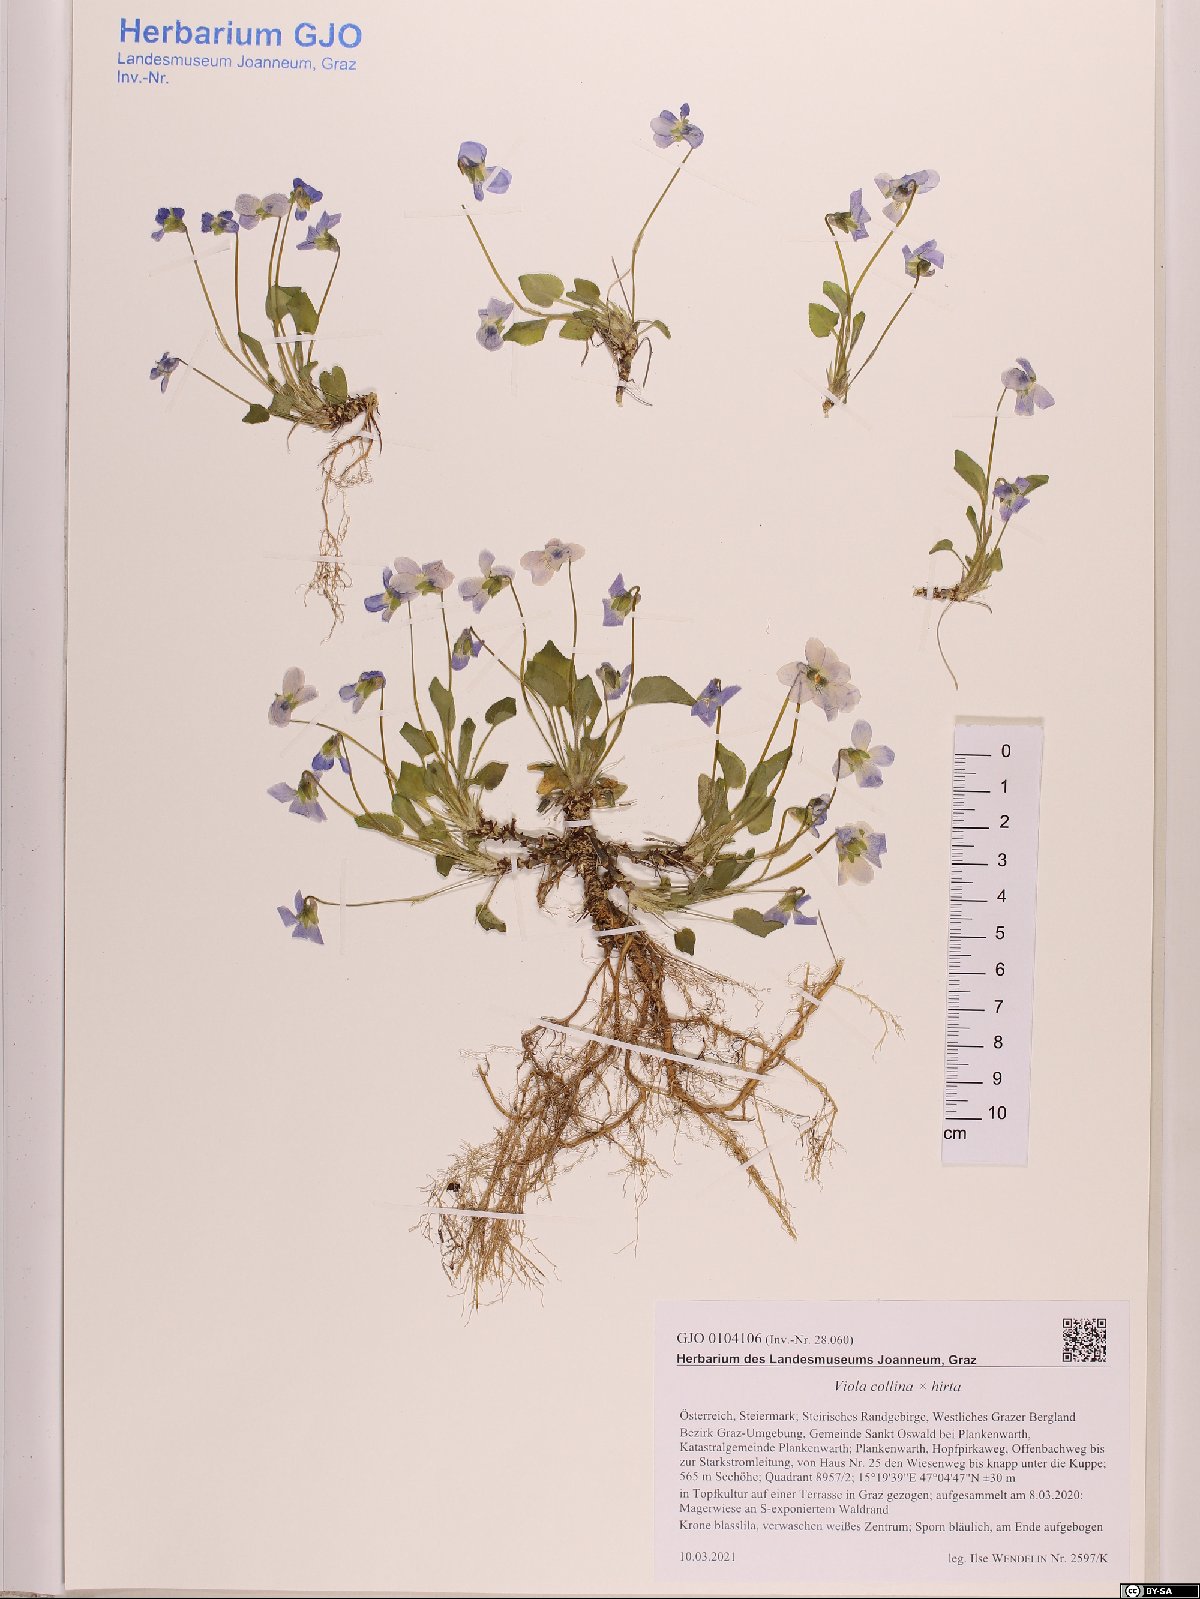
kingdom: Plantae
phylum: Tracheophyta
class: Magnoliopsida
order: Malpighiales
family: Violaceae
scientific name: Violaceae
